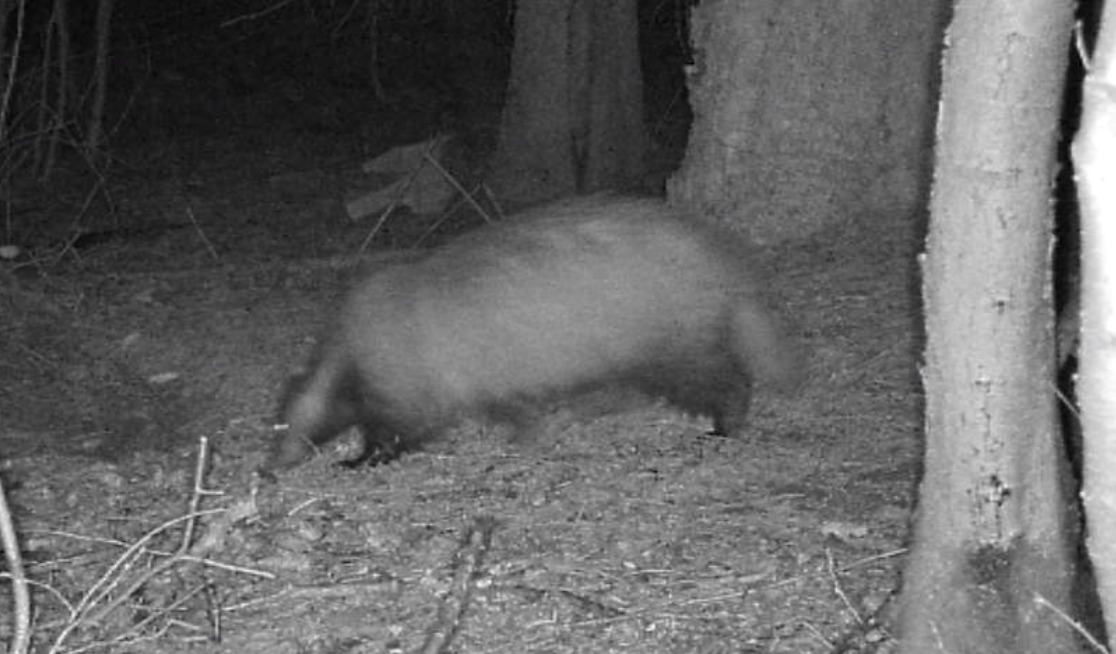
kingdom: Animalia
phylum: Chordata
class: Mammalia
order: Carnivora
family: Mustelidae
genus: Meles
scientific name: Meles meles
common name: Grævling
